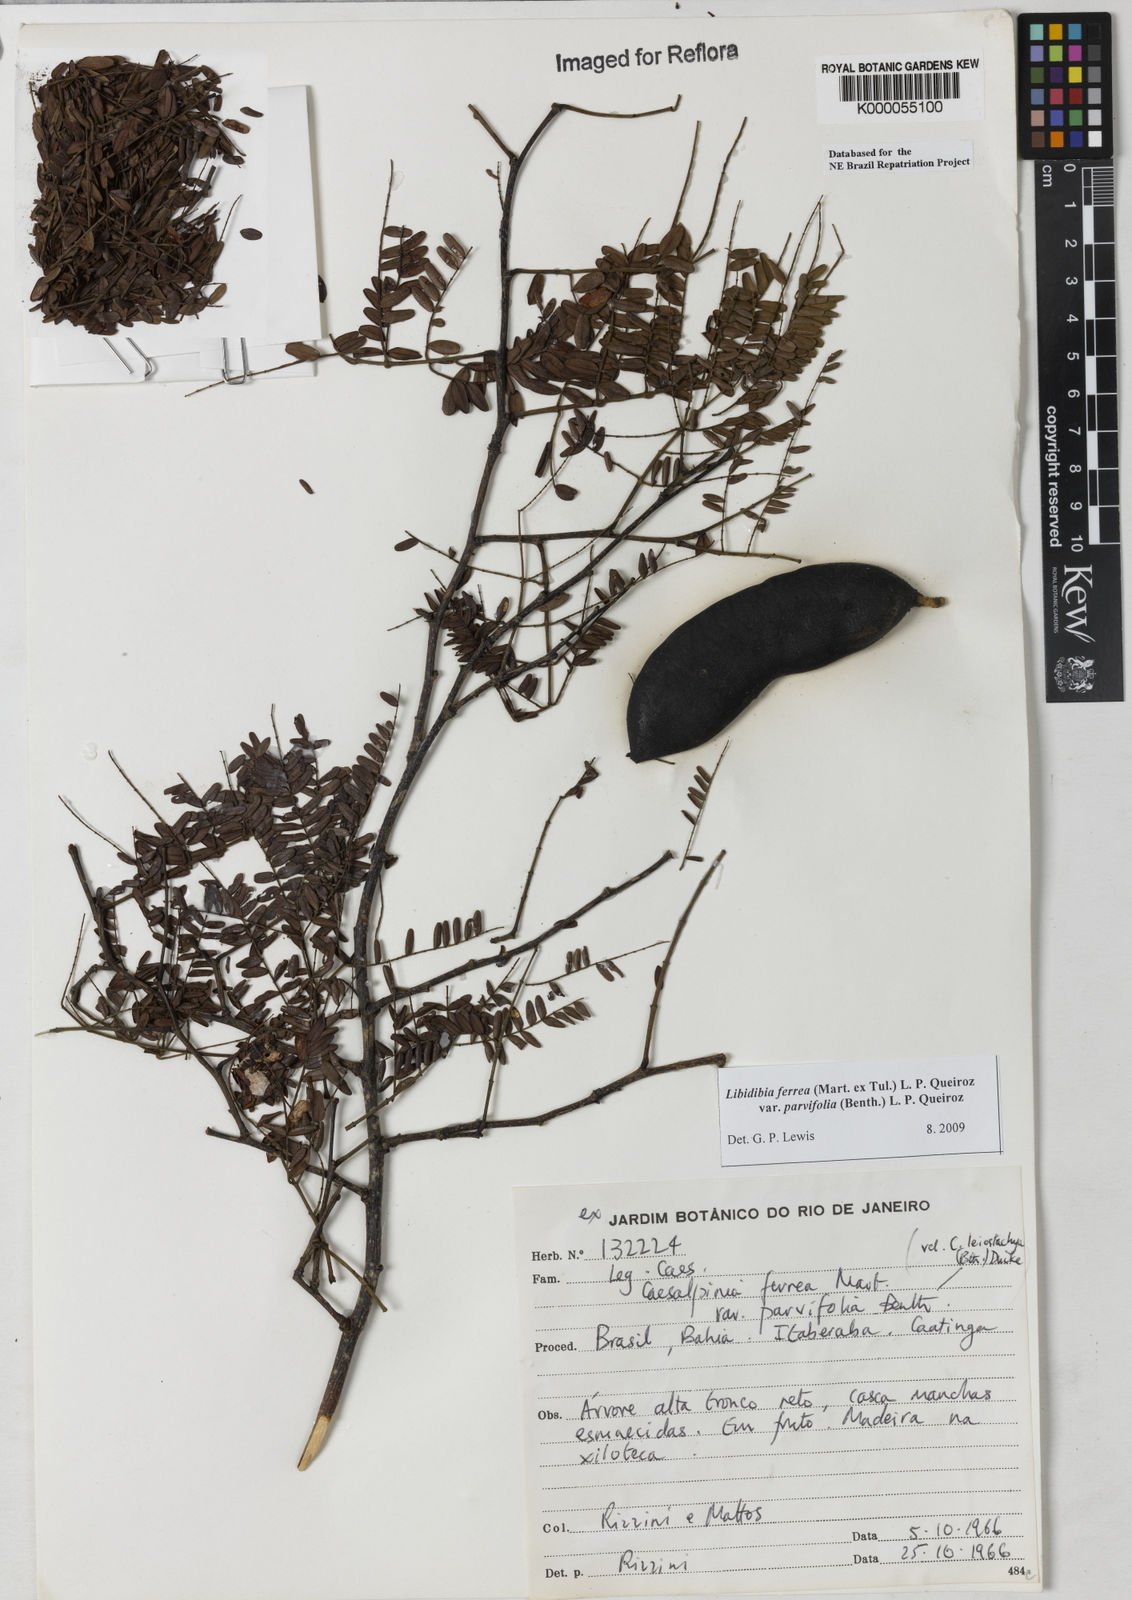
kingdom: Plantae
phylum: Tracheophyta
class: Magnoliopsida
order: Fabales
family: Fabaceae
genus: Libidibia
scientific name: Libidibia ferrea
